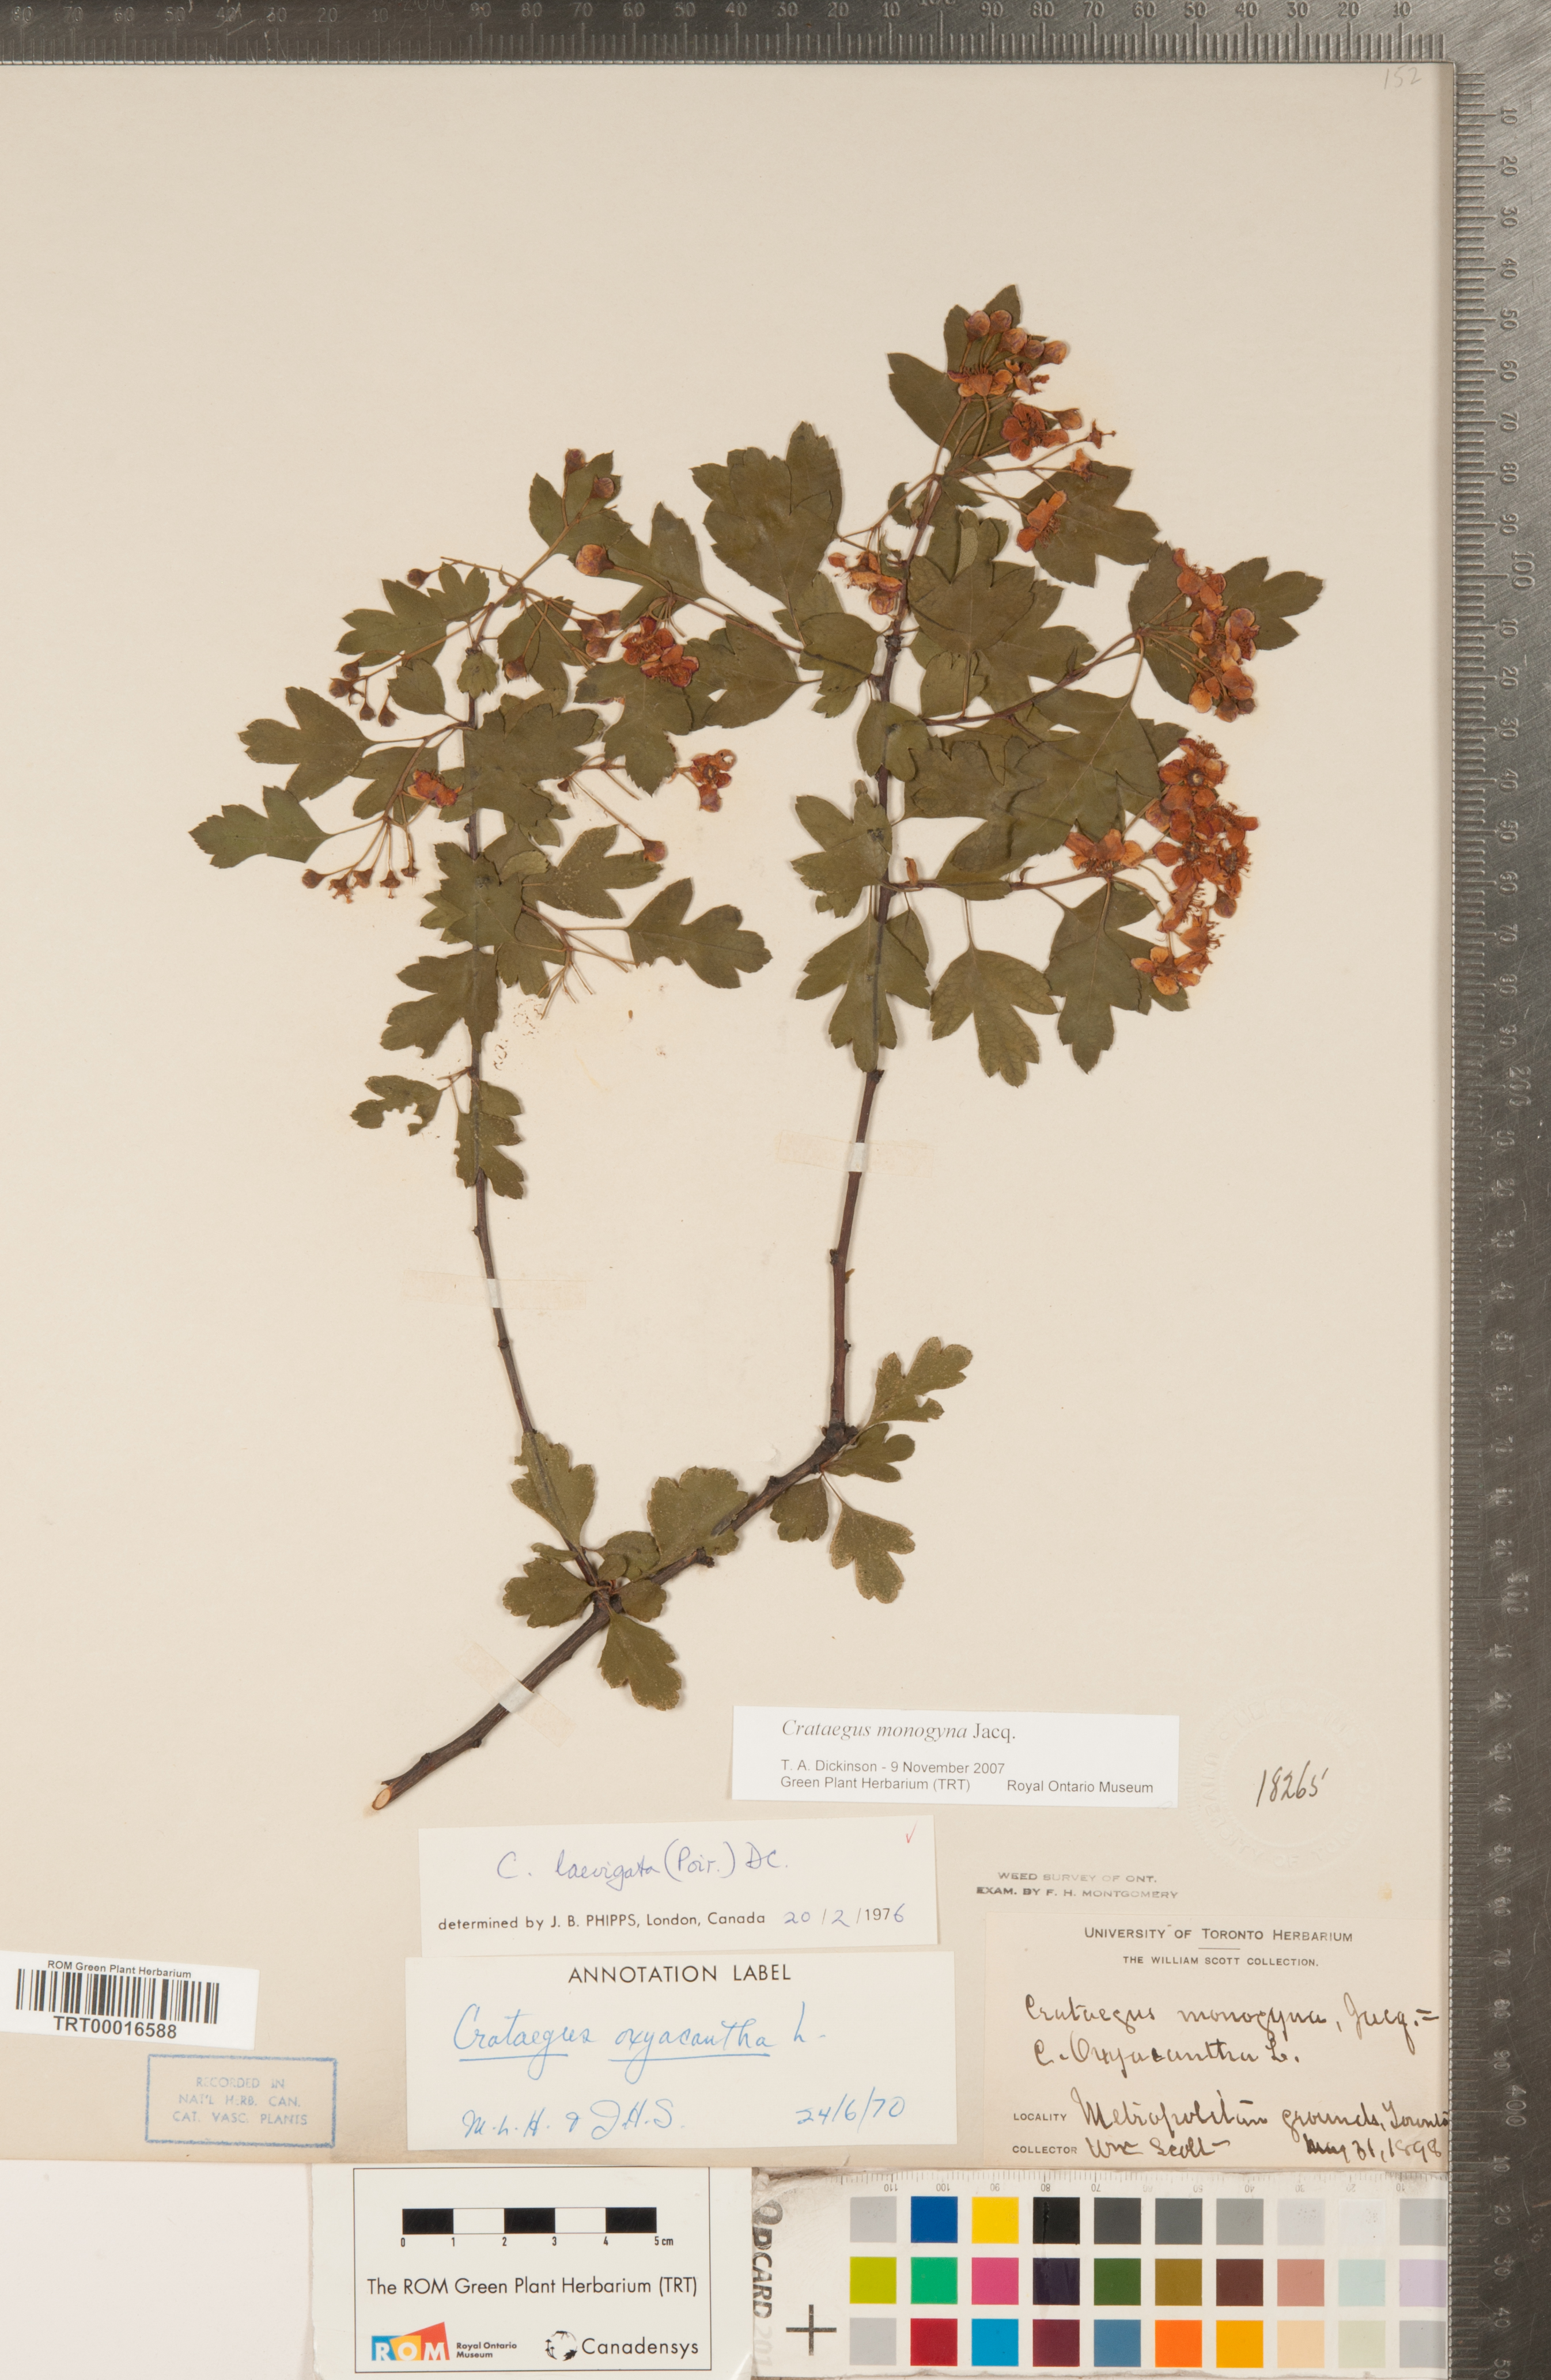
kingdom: Plantae
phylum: Tracheophyta
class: Magnoliopsida
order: Rosales
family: Rosaceae
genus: Crataegus
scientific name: Crataegus monogyna
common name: Hawthorn
